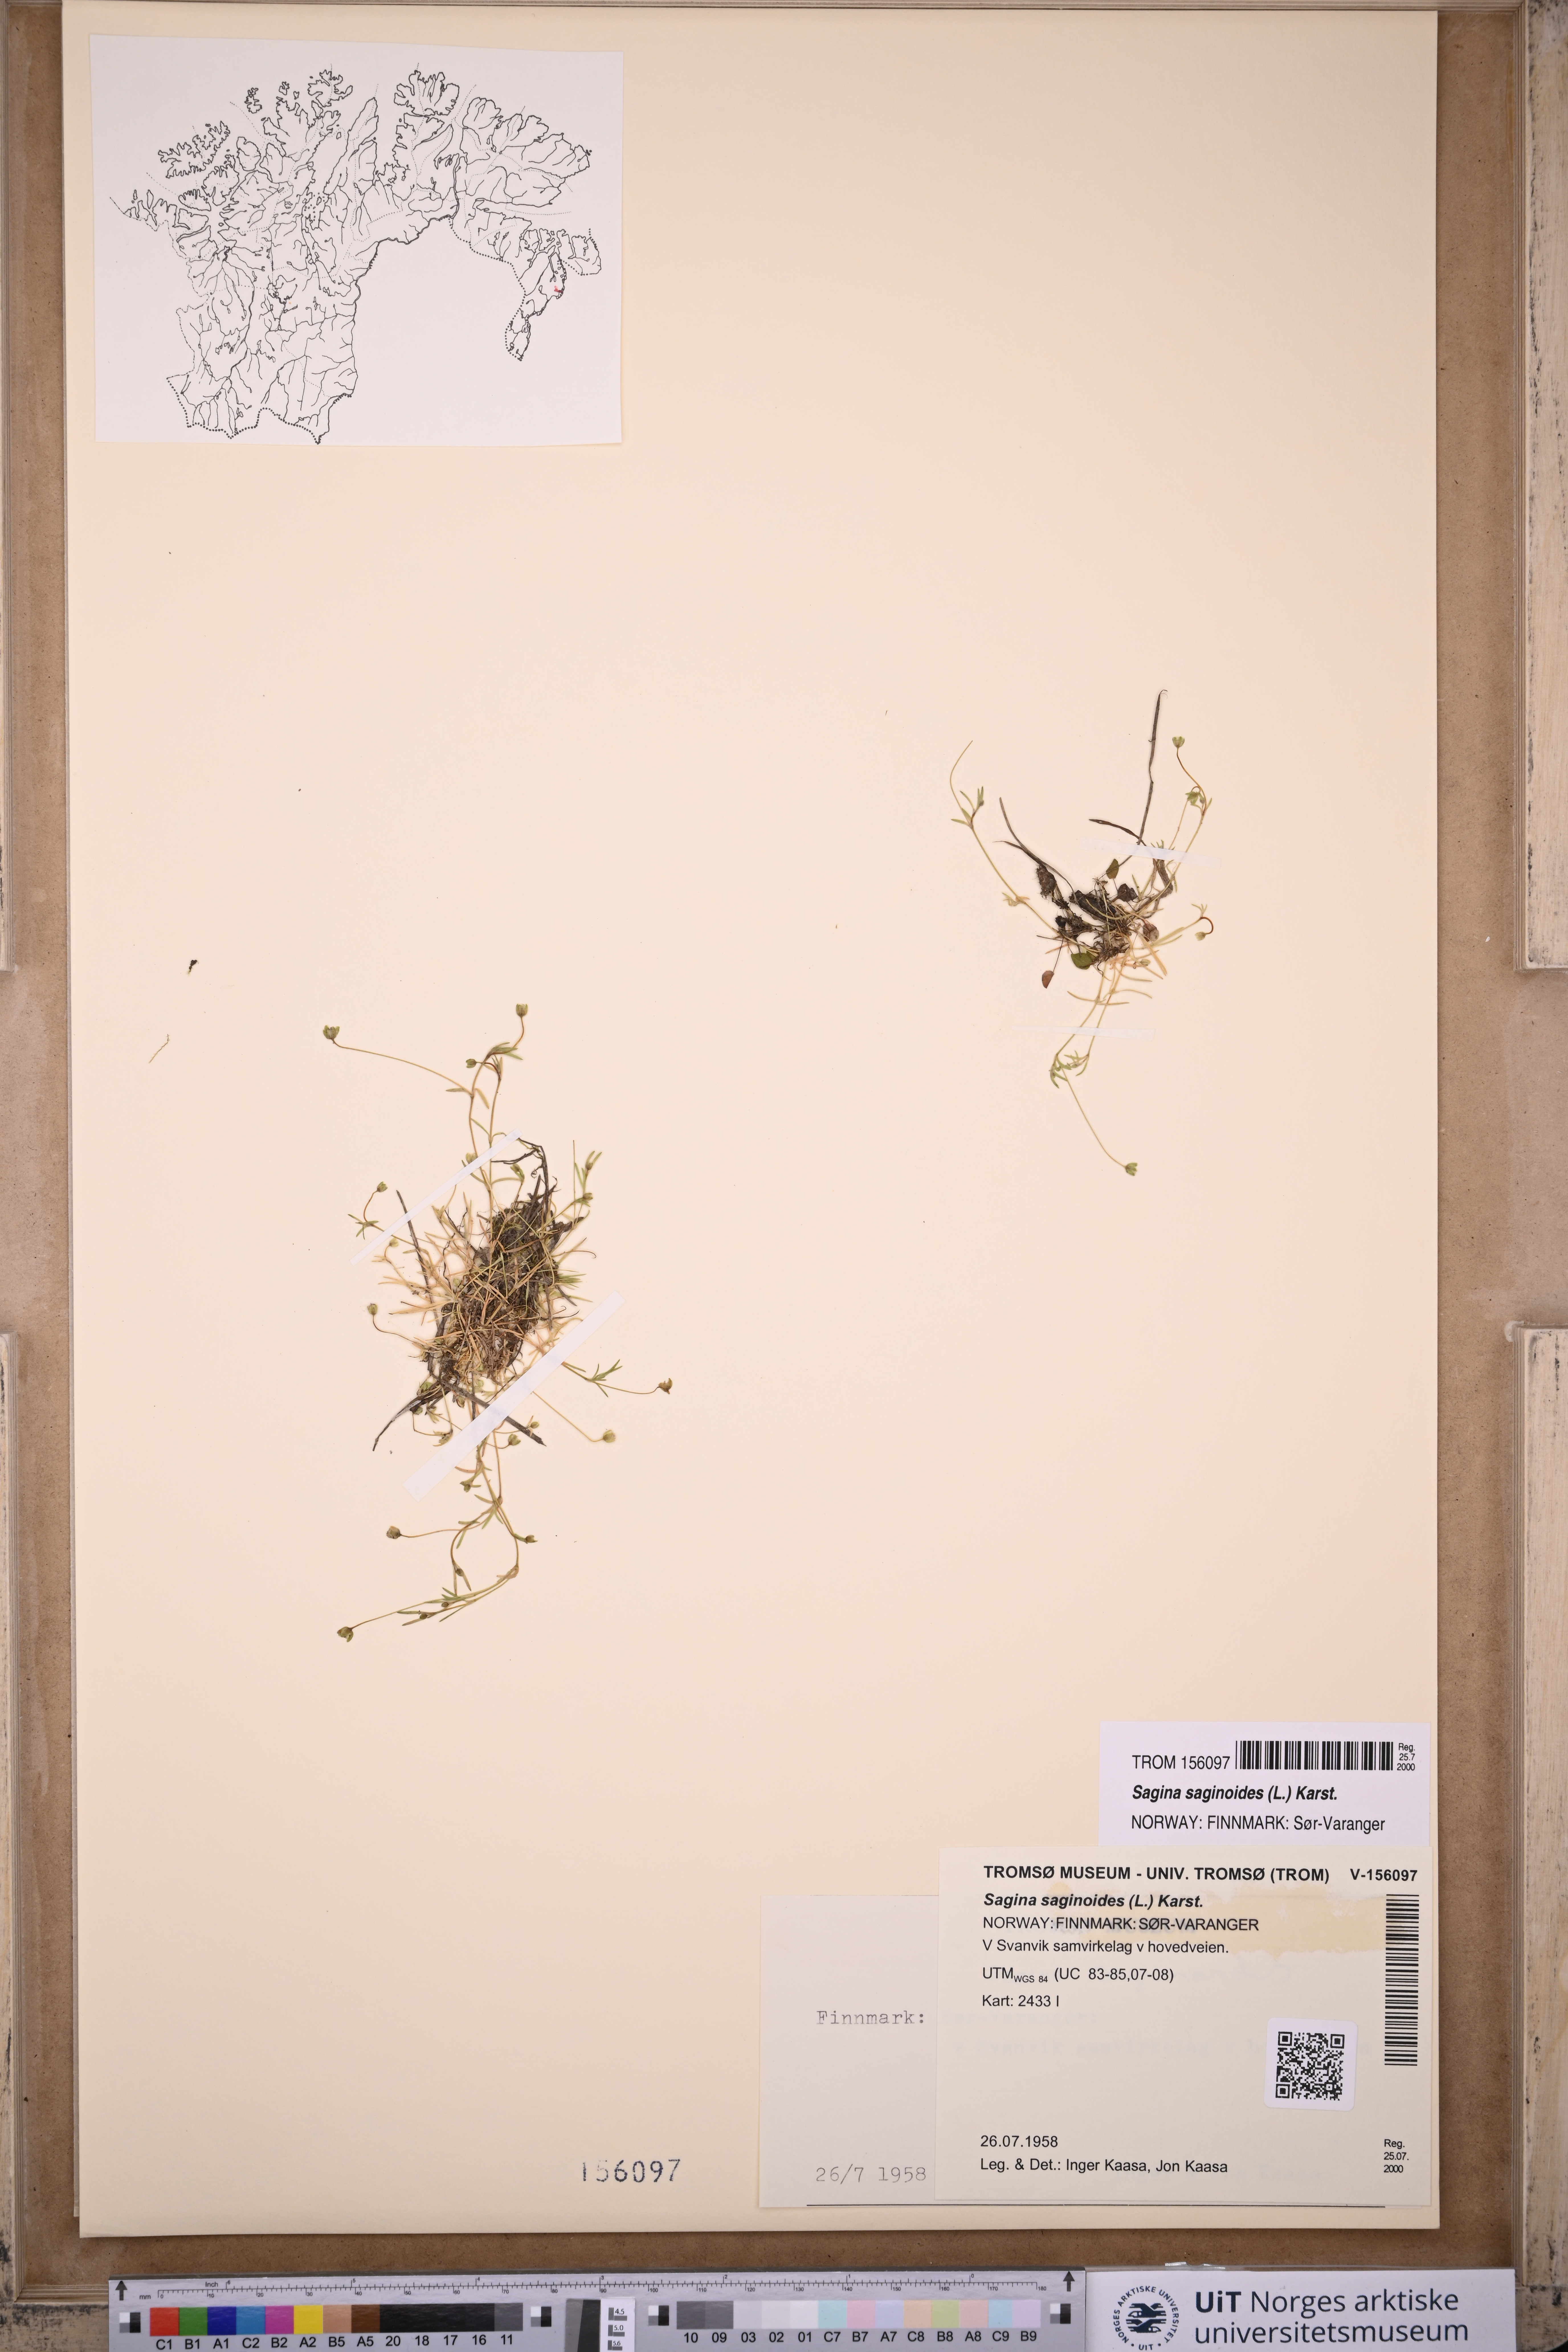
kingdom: Plantae
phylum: Tracheophyta
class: Magnoliopsida
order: Caryophyllales
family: Caryophyllaceae
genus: Sagina
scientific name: Sagina saginoides
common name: Alpine pearlwort
